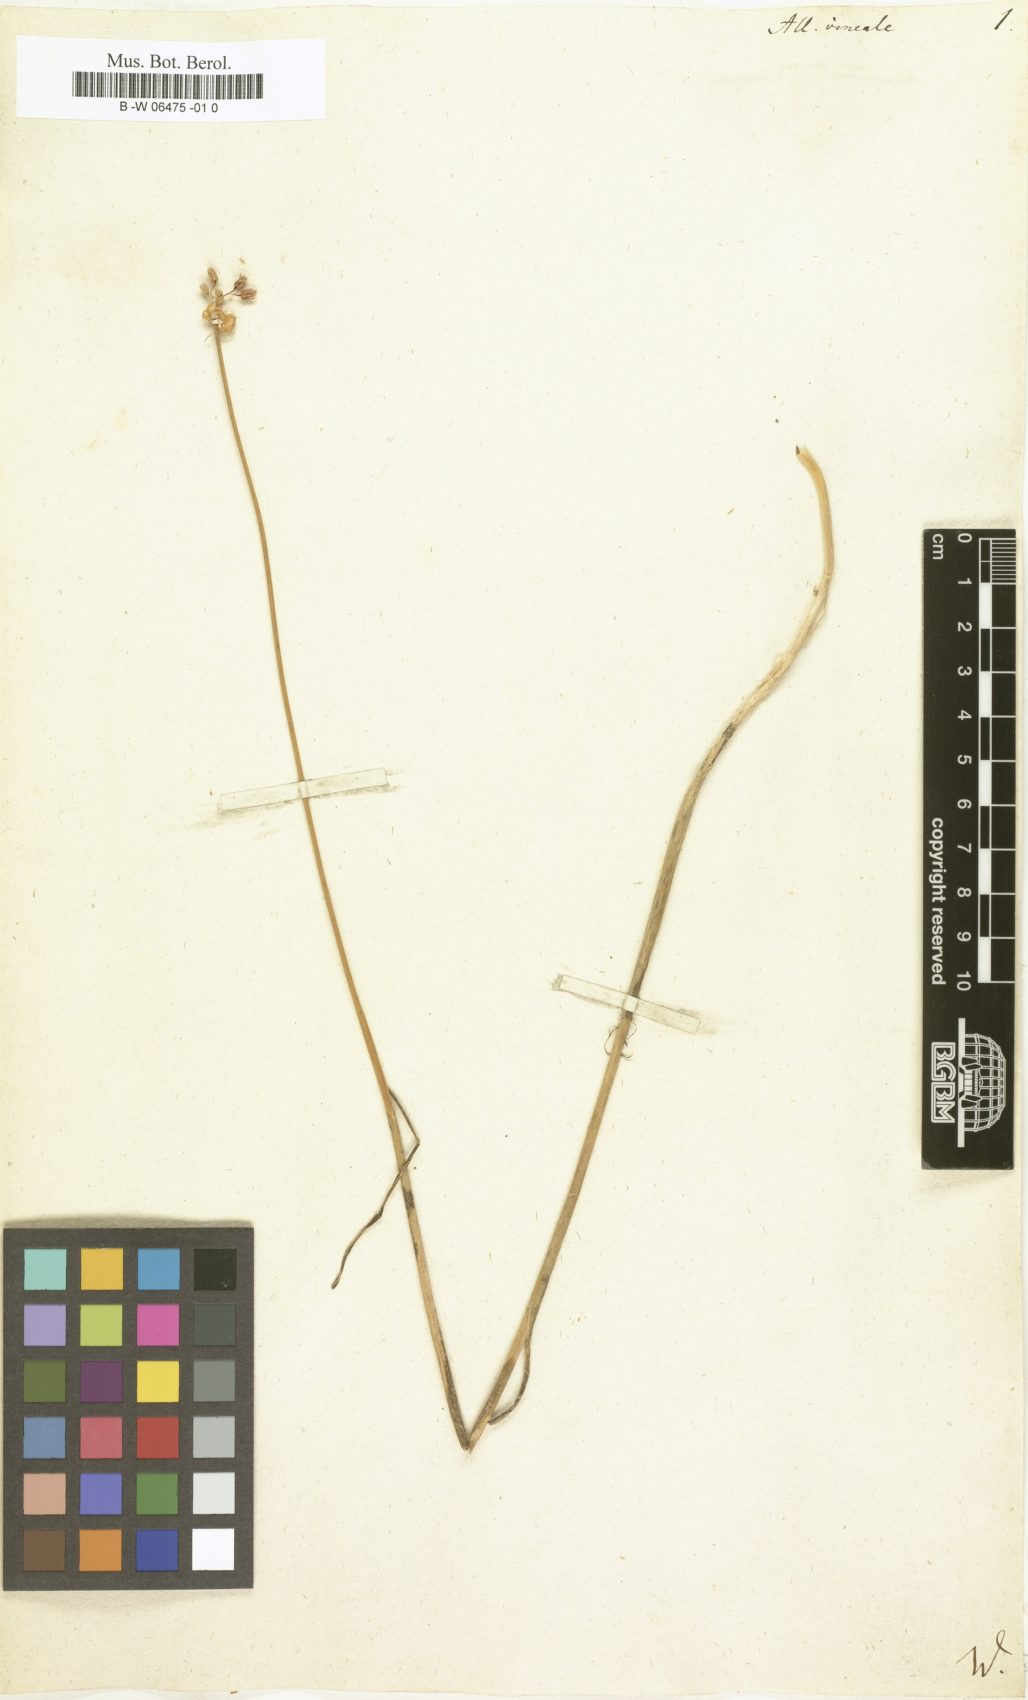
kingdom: Plantae
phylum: Tracheophyta
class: Liliopsida
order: Asparagales
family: Amaryllidaceae
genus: Allium
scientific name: Allium vineale
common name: Crow garlic
